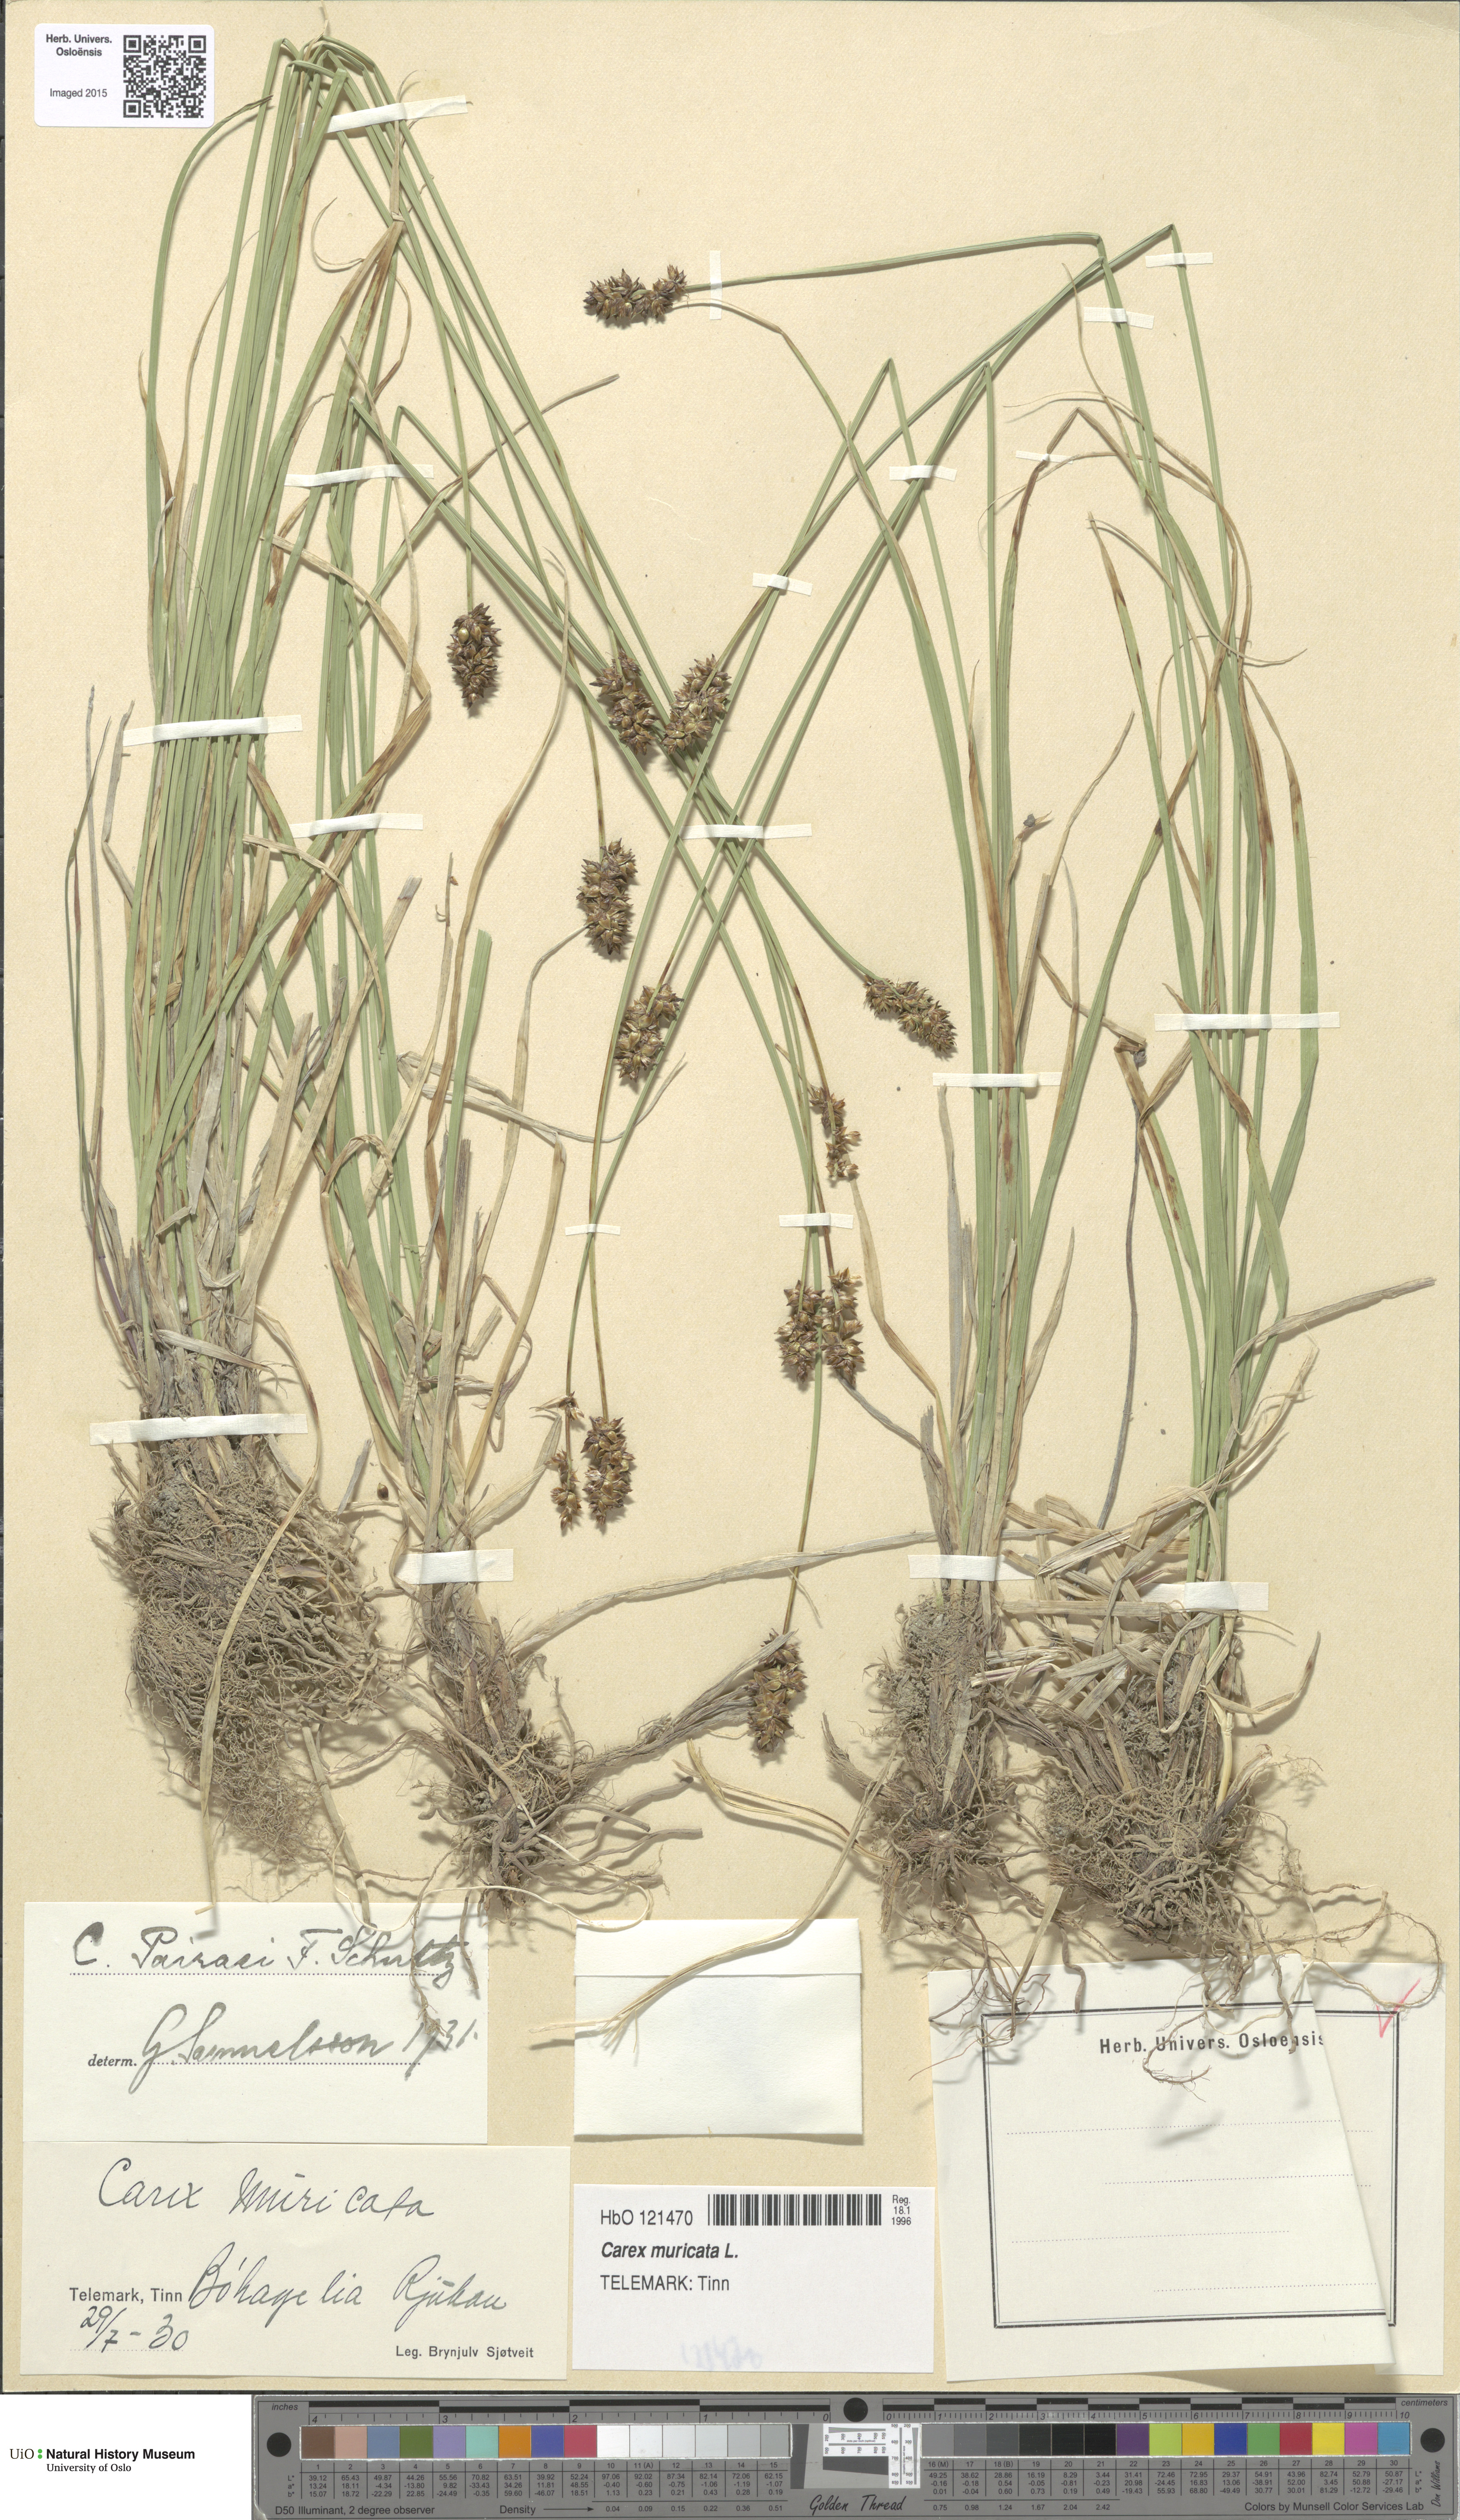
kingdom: Plantae
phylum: Tracheophyta
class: Liliopsida
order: Poales
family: Cyperaceae
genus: Carex
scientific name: Carex muricata
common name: Rough sedge
